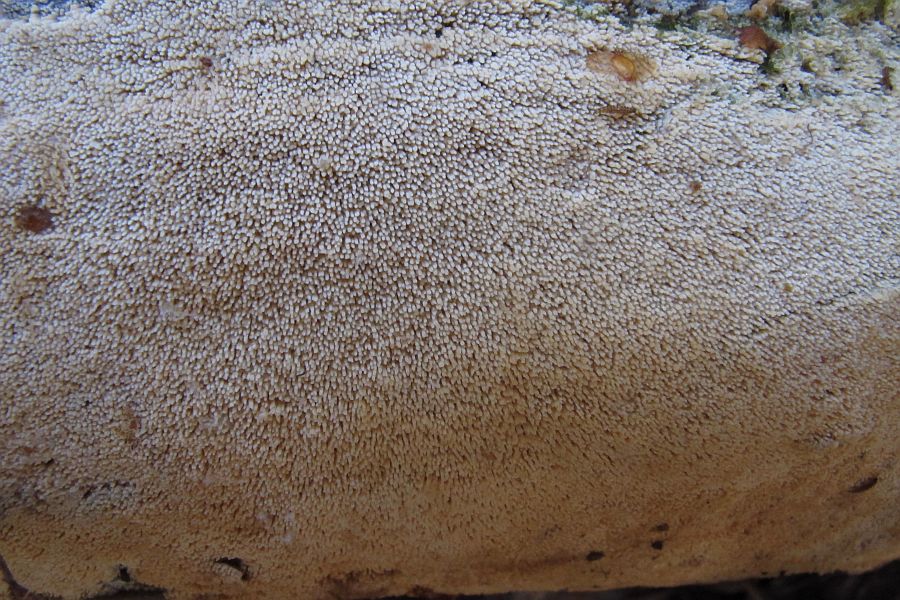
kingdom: Fungi
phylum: Basidiomycota
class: Agaricomycetes
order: Hymenochaetales
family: Hyphodontiaceae
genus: Hyphodontia
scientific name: Hyphodontia arguta
